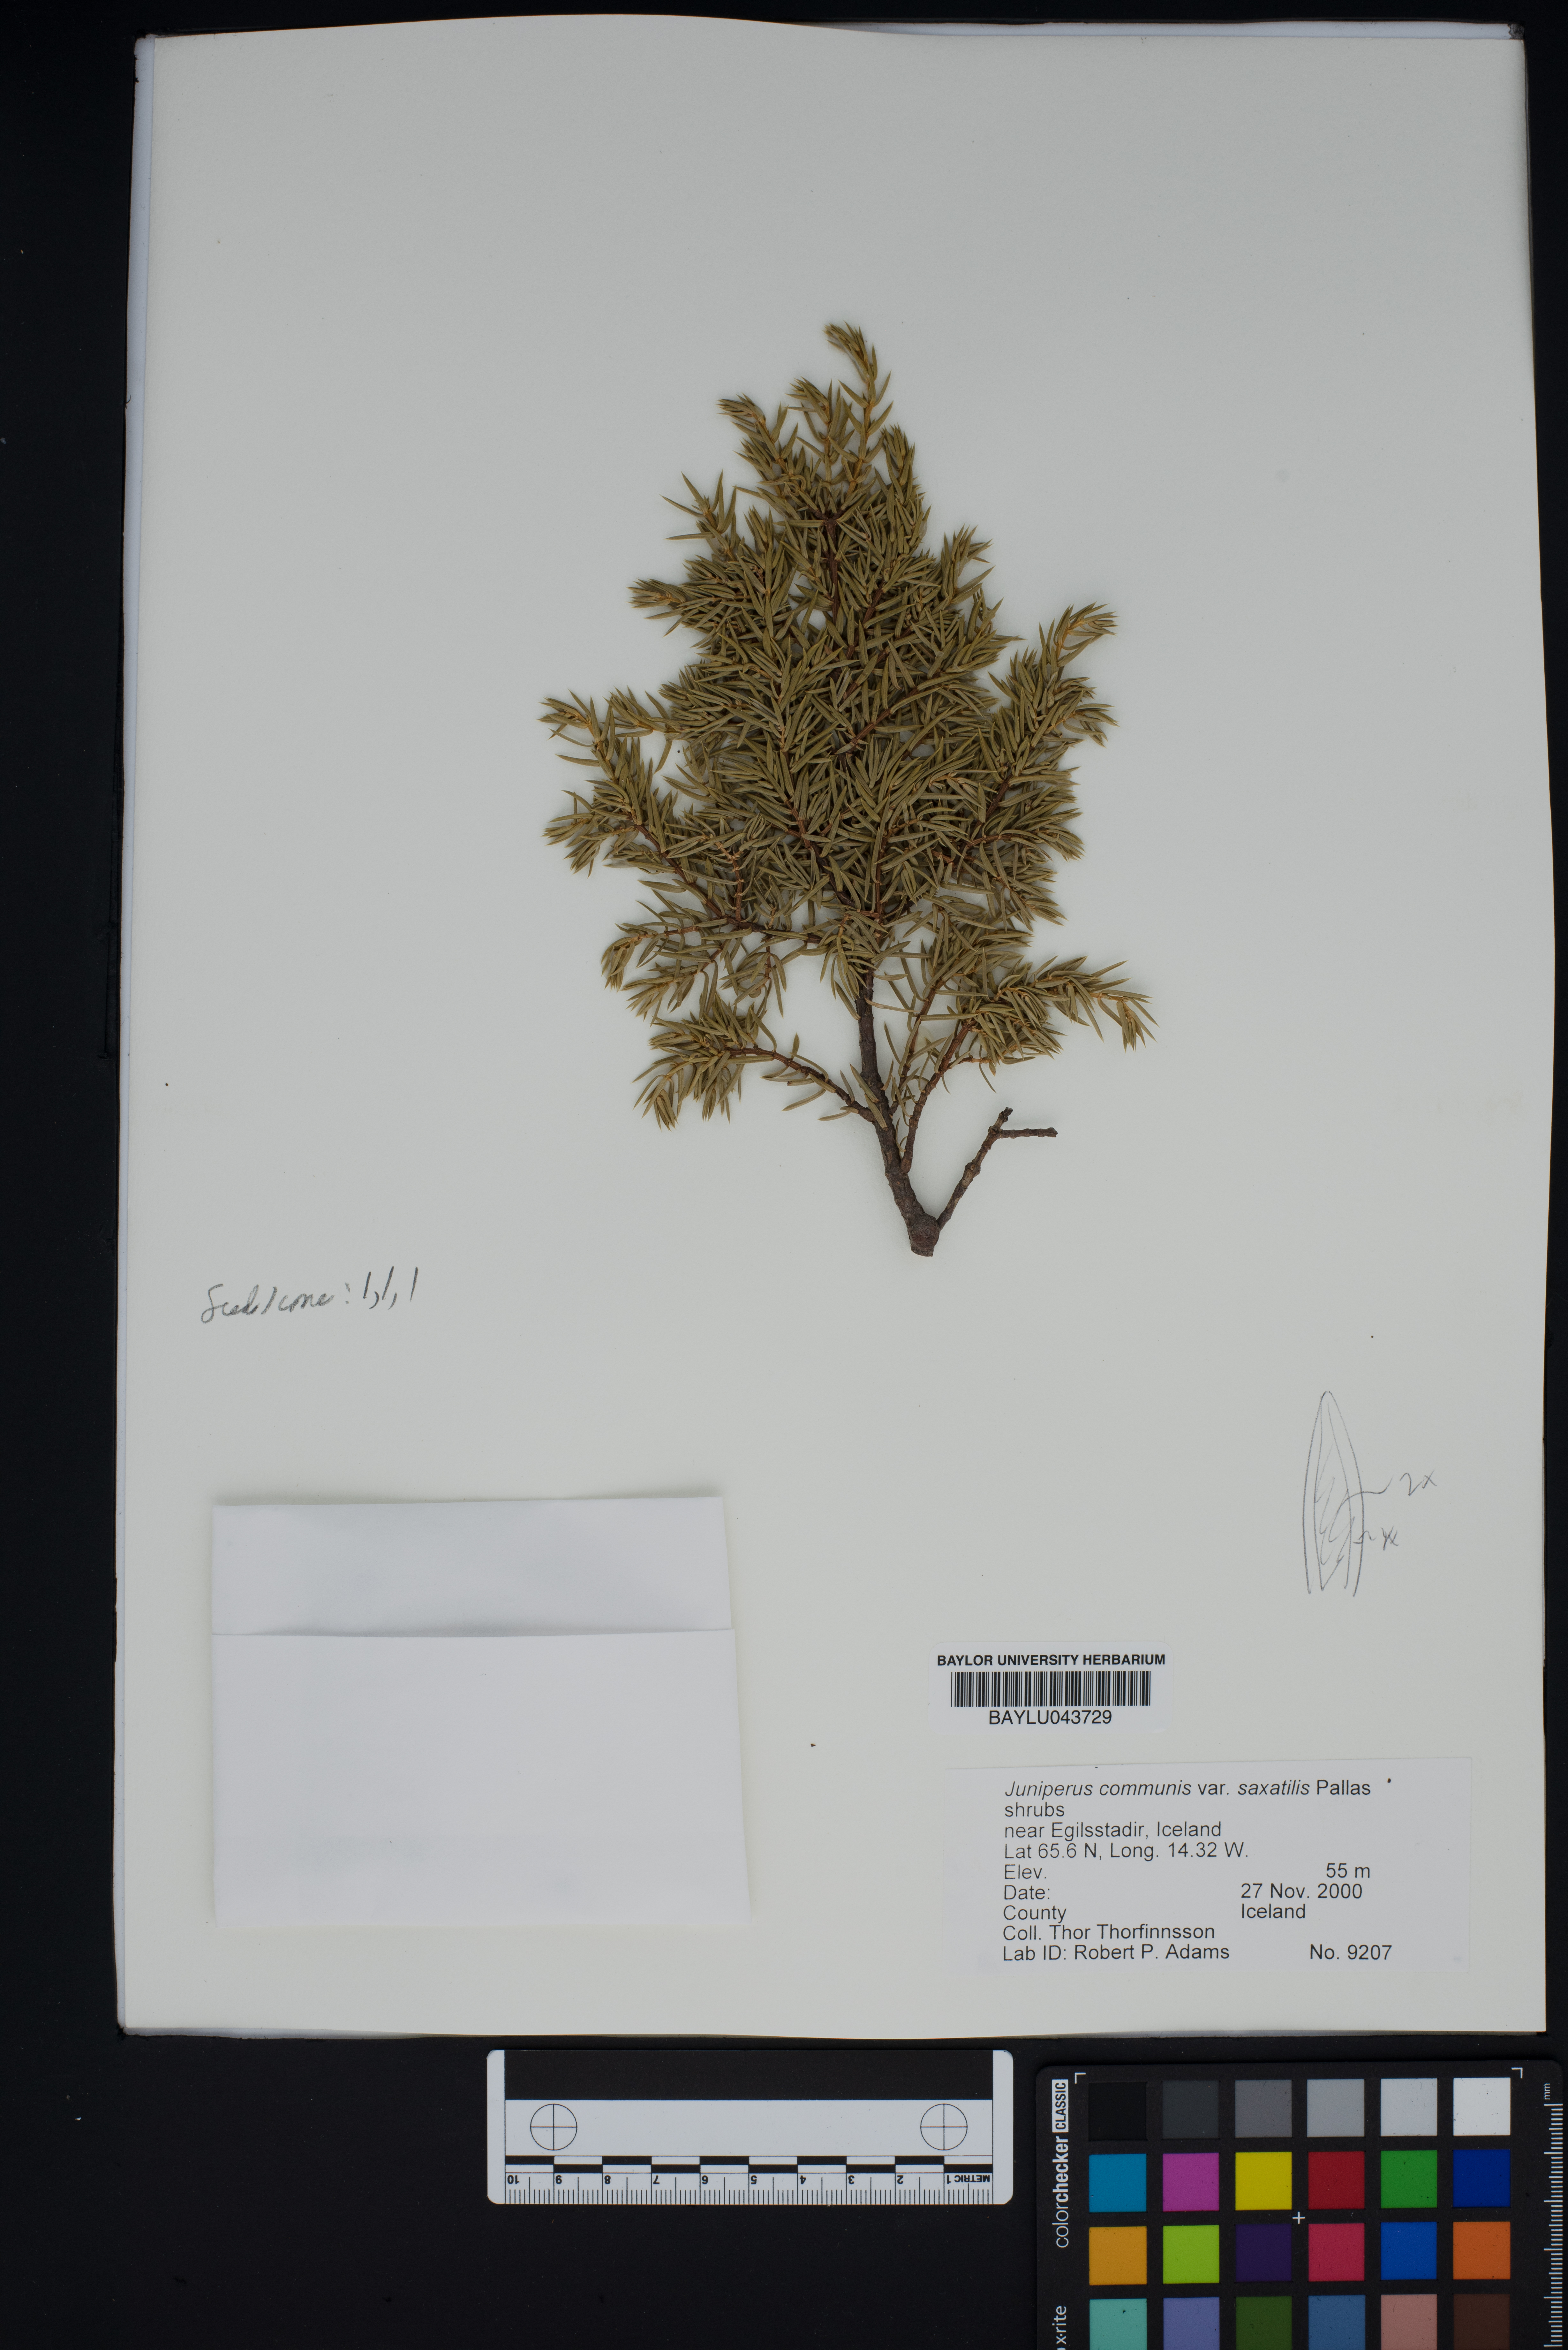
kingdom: Plantae
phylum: Tracheophyta
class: Pinopsida
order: Pinales
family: Cupressaceae
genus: Juniperus
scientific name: Juniperus communis
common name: Common juniper
